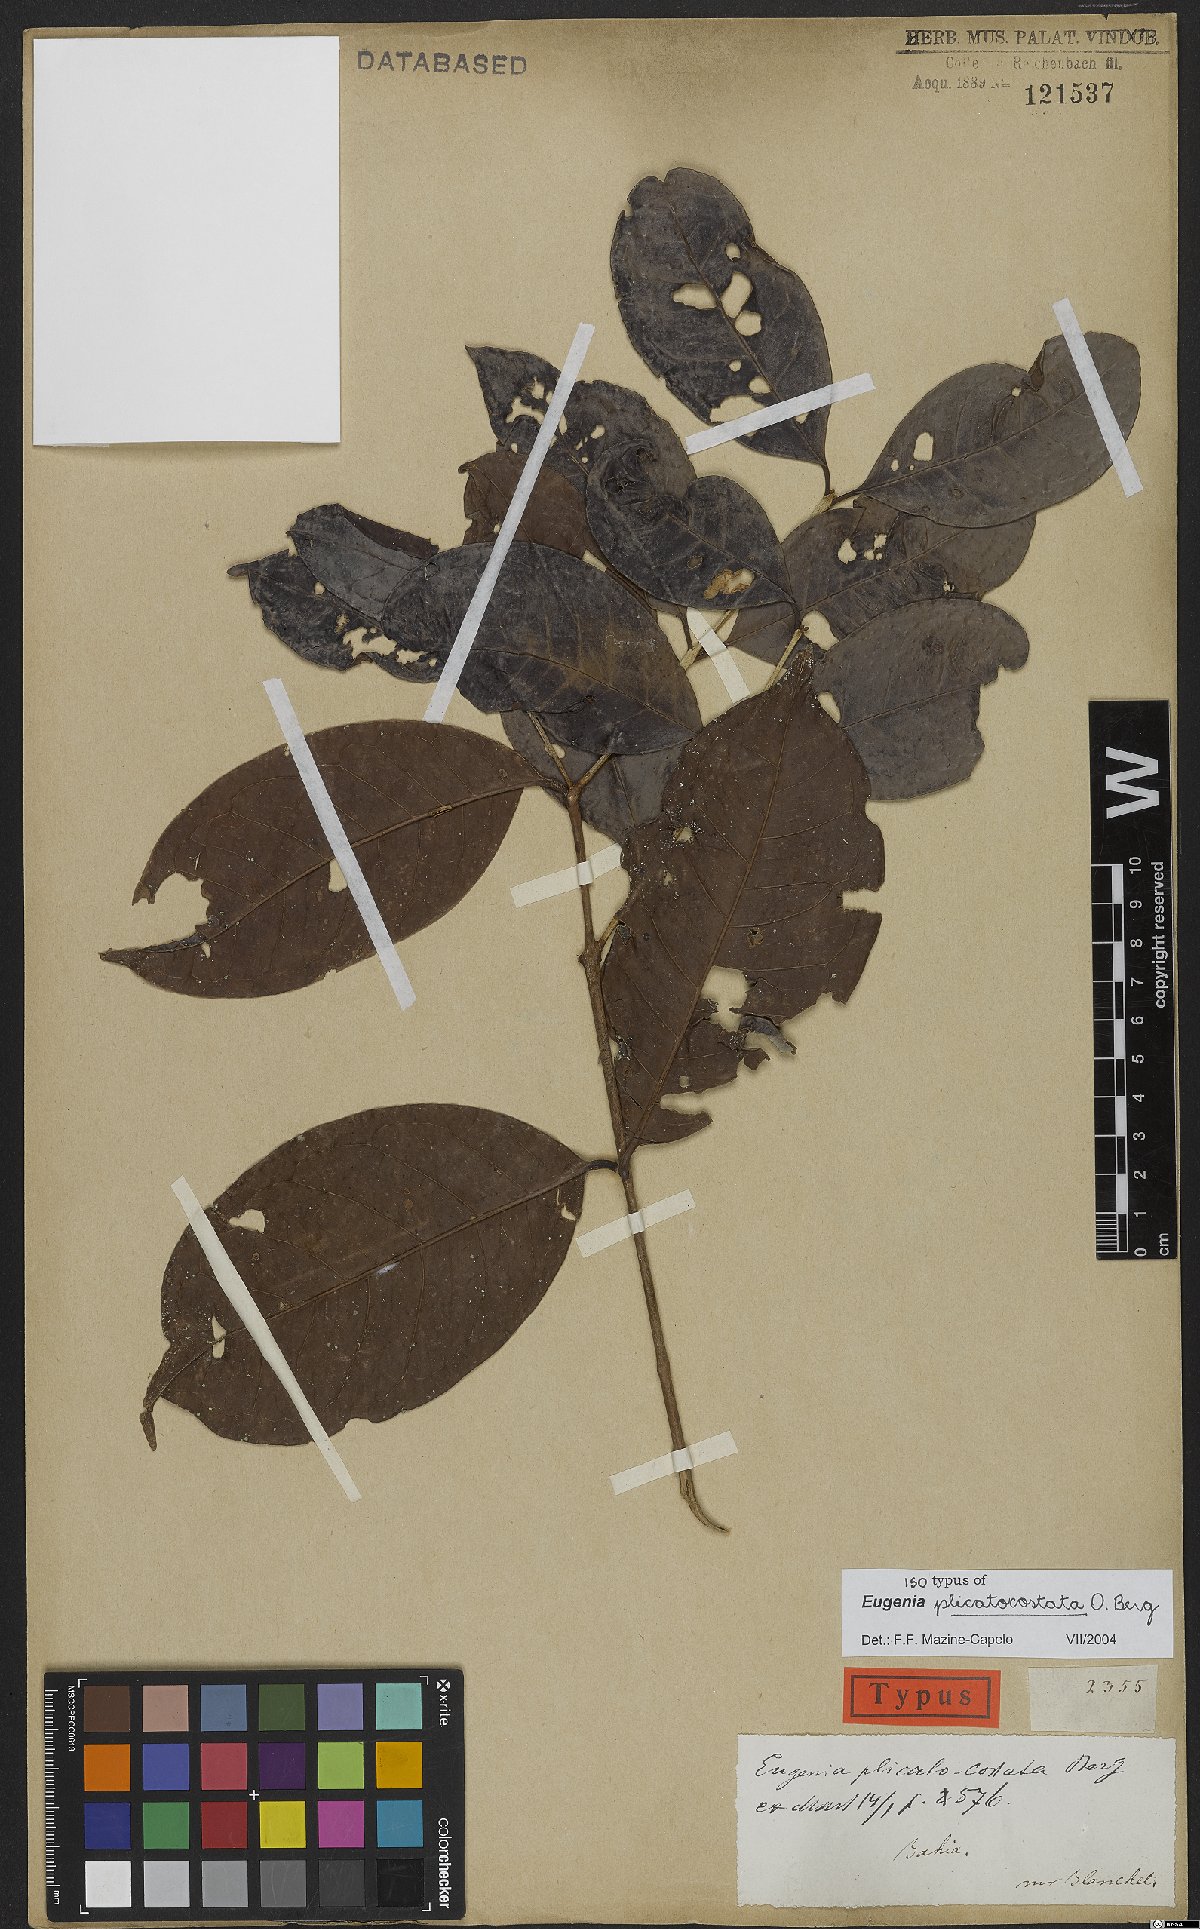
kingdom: Plantae
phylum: Tracheophyta
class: Magnoliopsida
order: Myrtales
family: Myrtaceae
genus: Eugenia
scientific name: Eugenia plicatocostata
